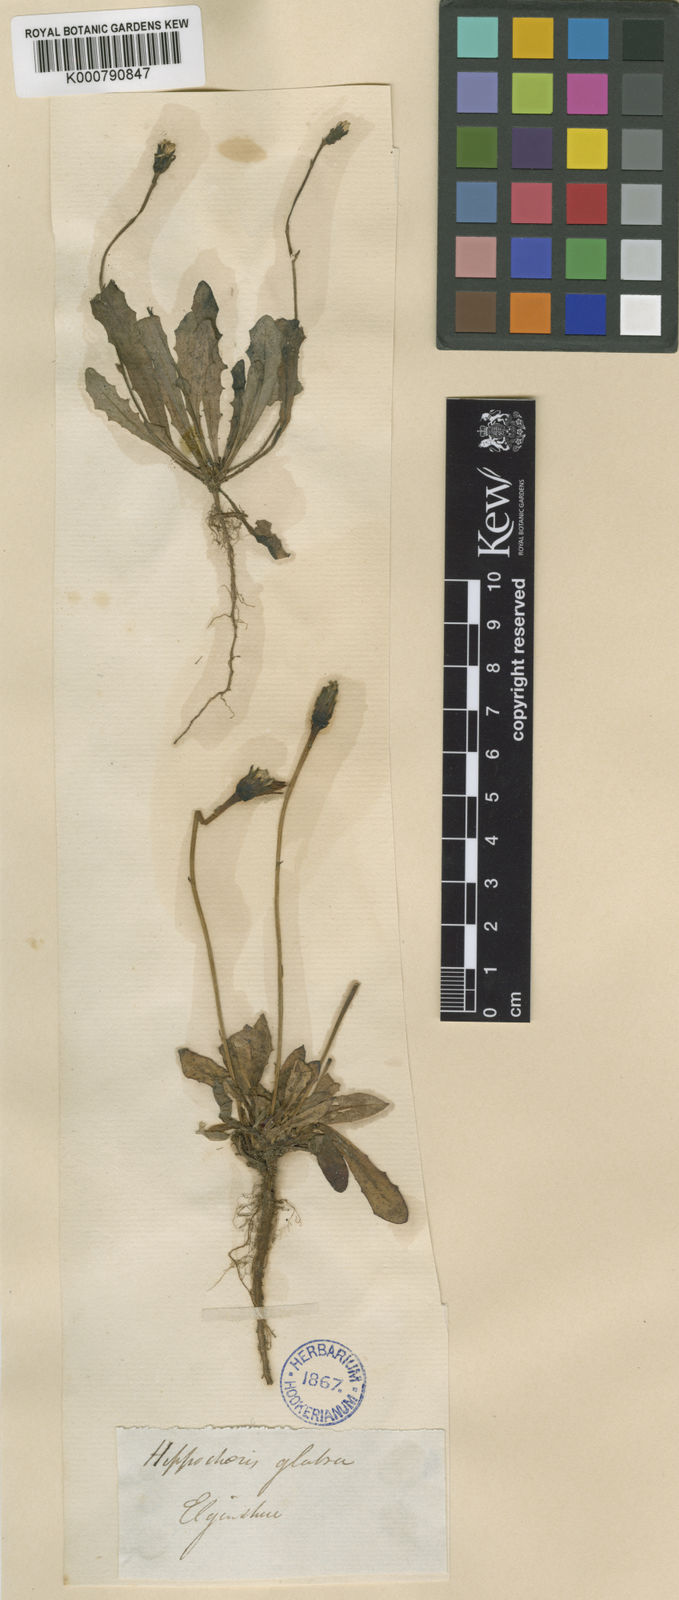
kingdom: Plantae
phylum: Tracheophyta
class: Magnoliopsida
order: Asterales
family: Asteraceae
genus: Hypochaeris
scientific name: Hypochaeris glabra
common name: Smooth catsear
